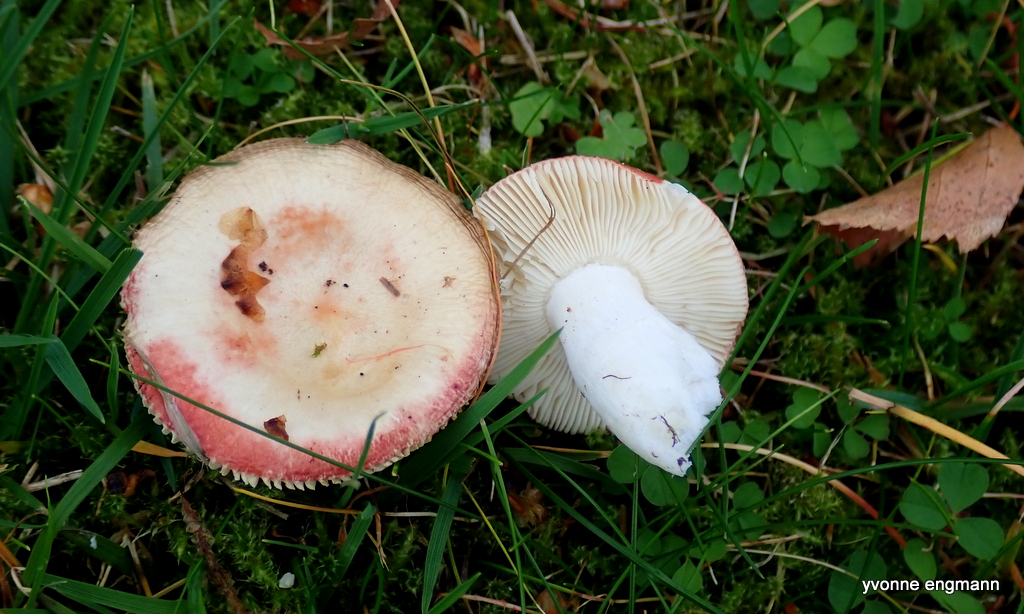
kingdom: Fungi
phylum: Basidiomycota
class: Agaricomycetes
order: Russulales
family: Russulaceae
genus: Russula
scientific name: Russula nobilis
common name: lille gift-skørhat
